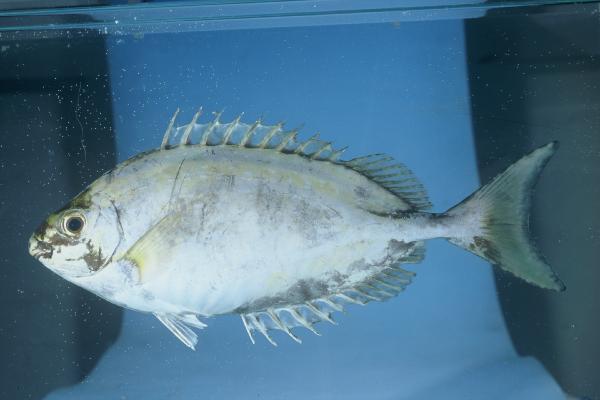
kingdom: Animalia
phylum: Chordata
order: Perciformes
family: Siganidae
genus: Siganus
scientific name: Siganus sutor
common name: Shoemaker spinefoot
